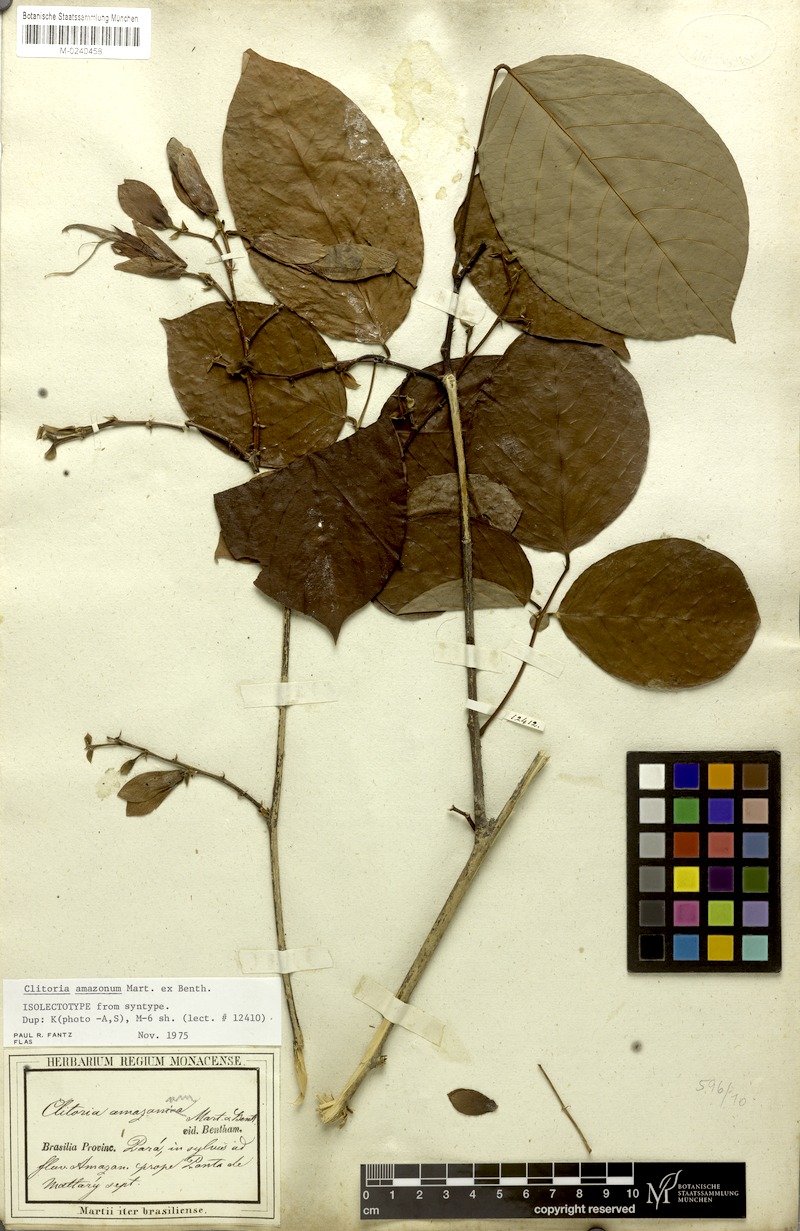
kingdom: Plantae
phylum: Tracheophyta
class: Magnoliopsida
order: Fabales
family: Fabaceae
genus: Clitoria
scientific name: Clitoria amazonum
